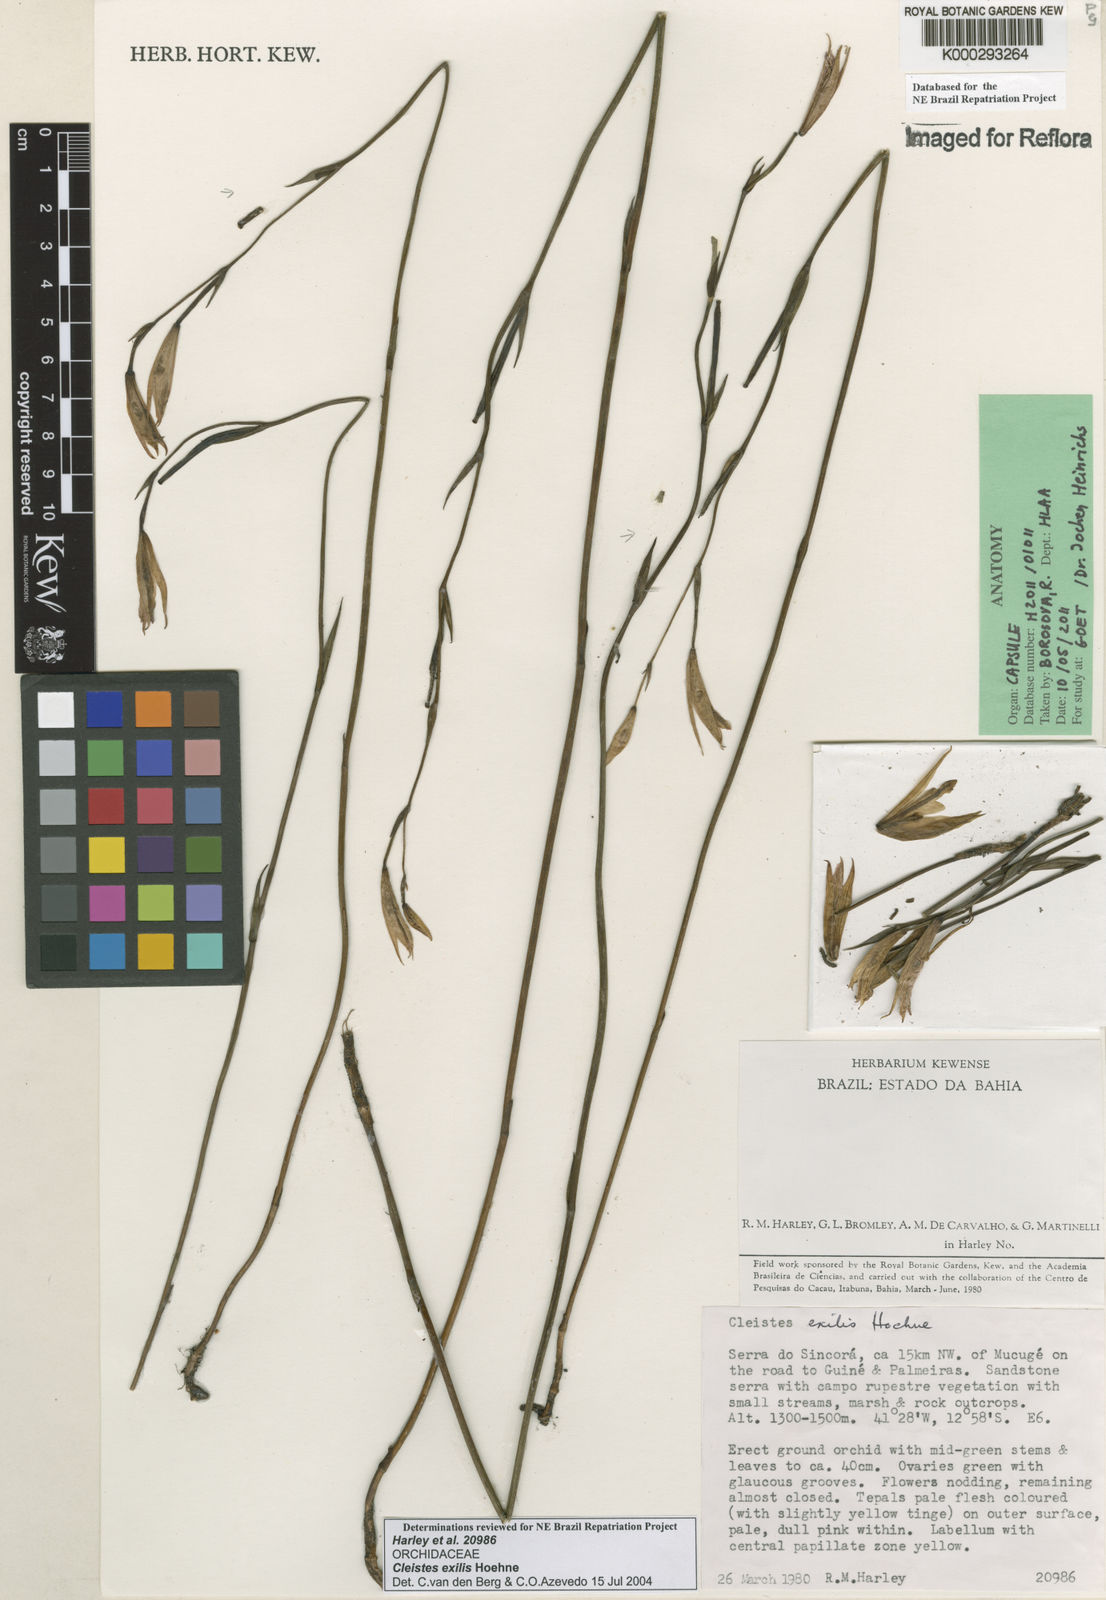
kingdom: Plantae
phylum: Tracheophyta
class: Liliopsida
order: Asparagales
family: Orchidaceae
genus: Cleistes
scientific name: Cleistes exilis
